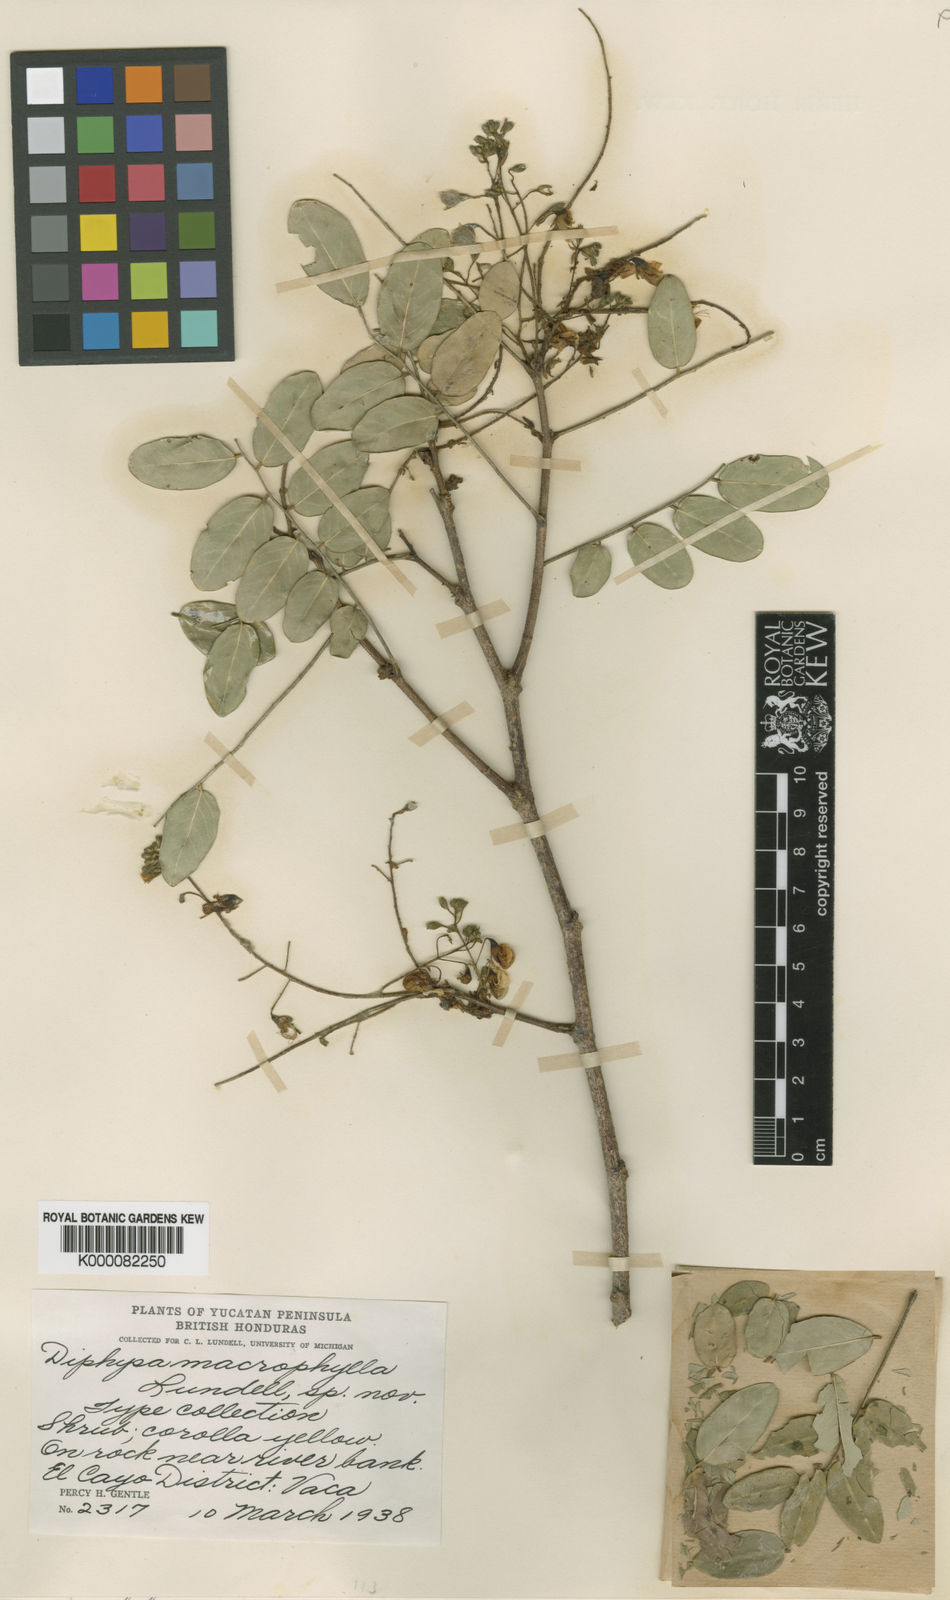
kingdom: Plantae
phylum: Tracheophyta
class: Magnoliopsida
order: Fabales
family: Fabaceae
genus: Diphysa
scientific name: Diphysa macrophylla
